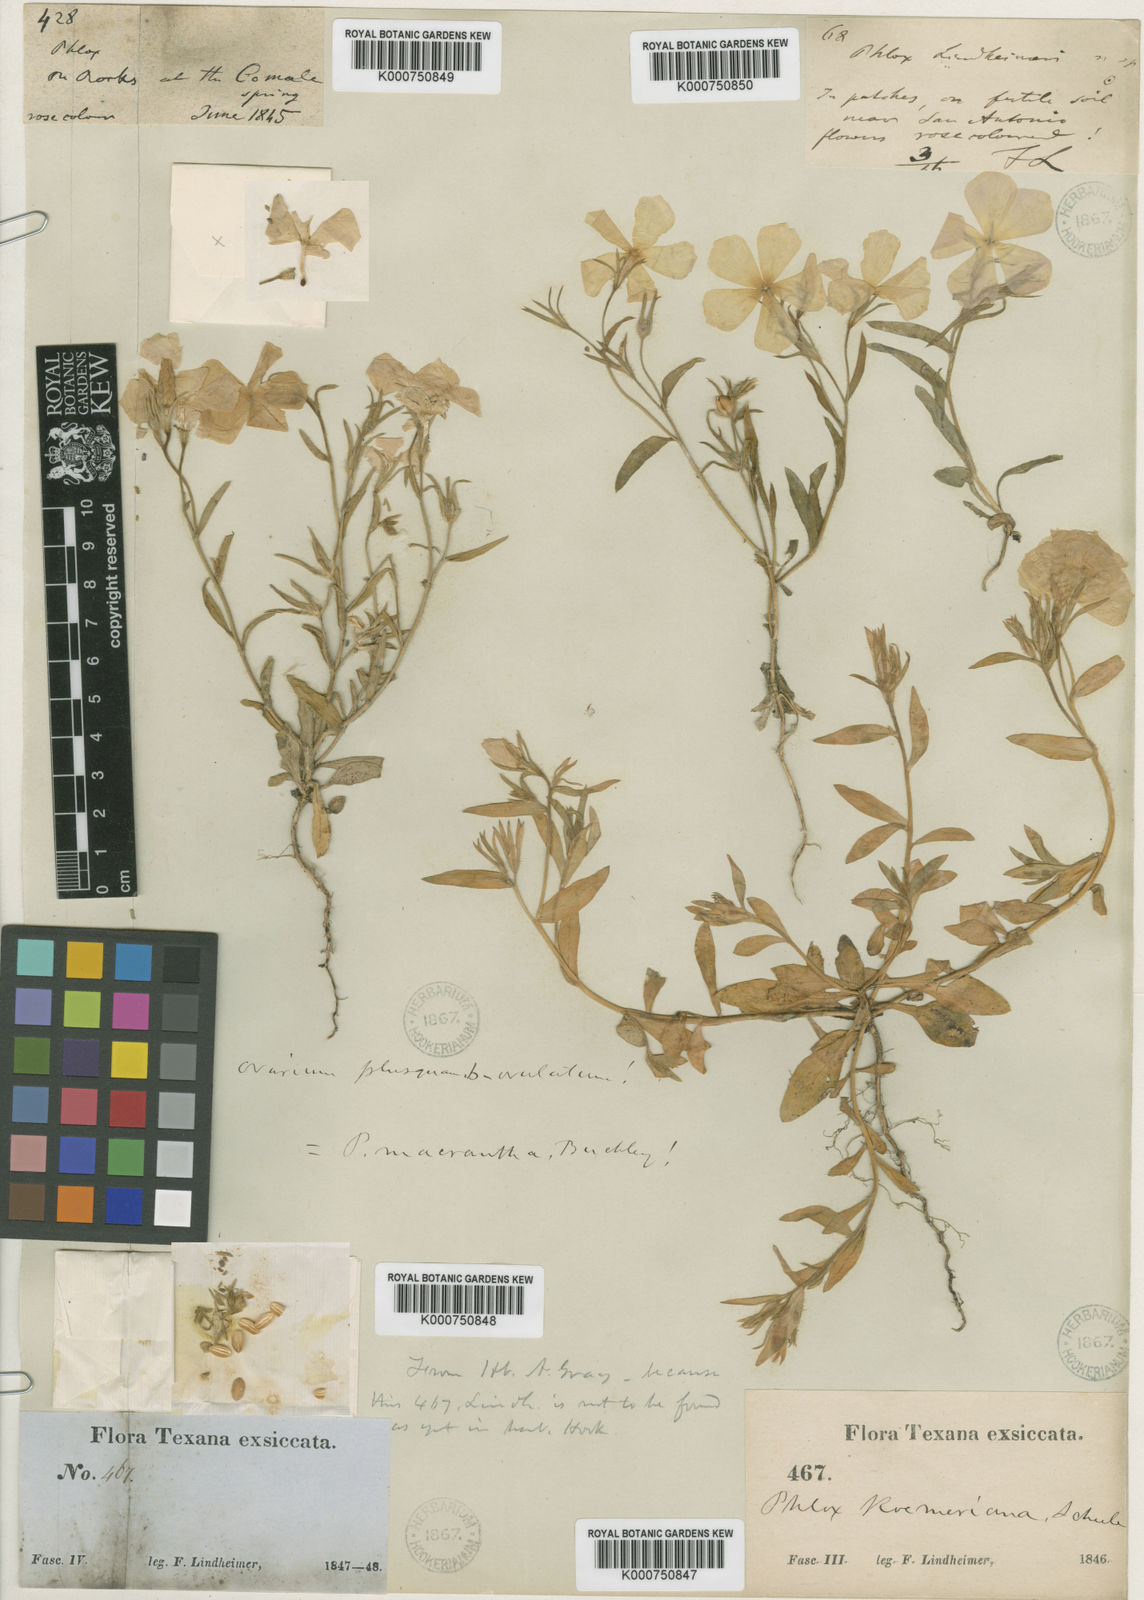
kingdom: Plantae
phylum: Tracheophyta
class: Magnoliopsida
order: Ericales
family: Polemoniaceae
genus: Phlox
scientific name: Phlox roemeriana
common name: Roemer's phlox
